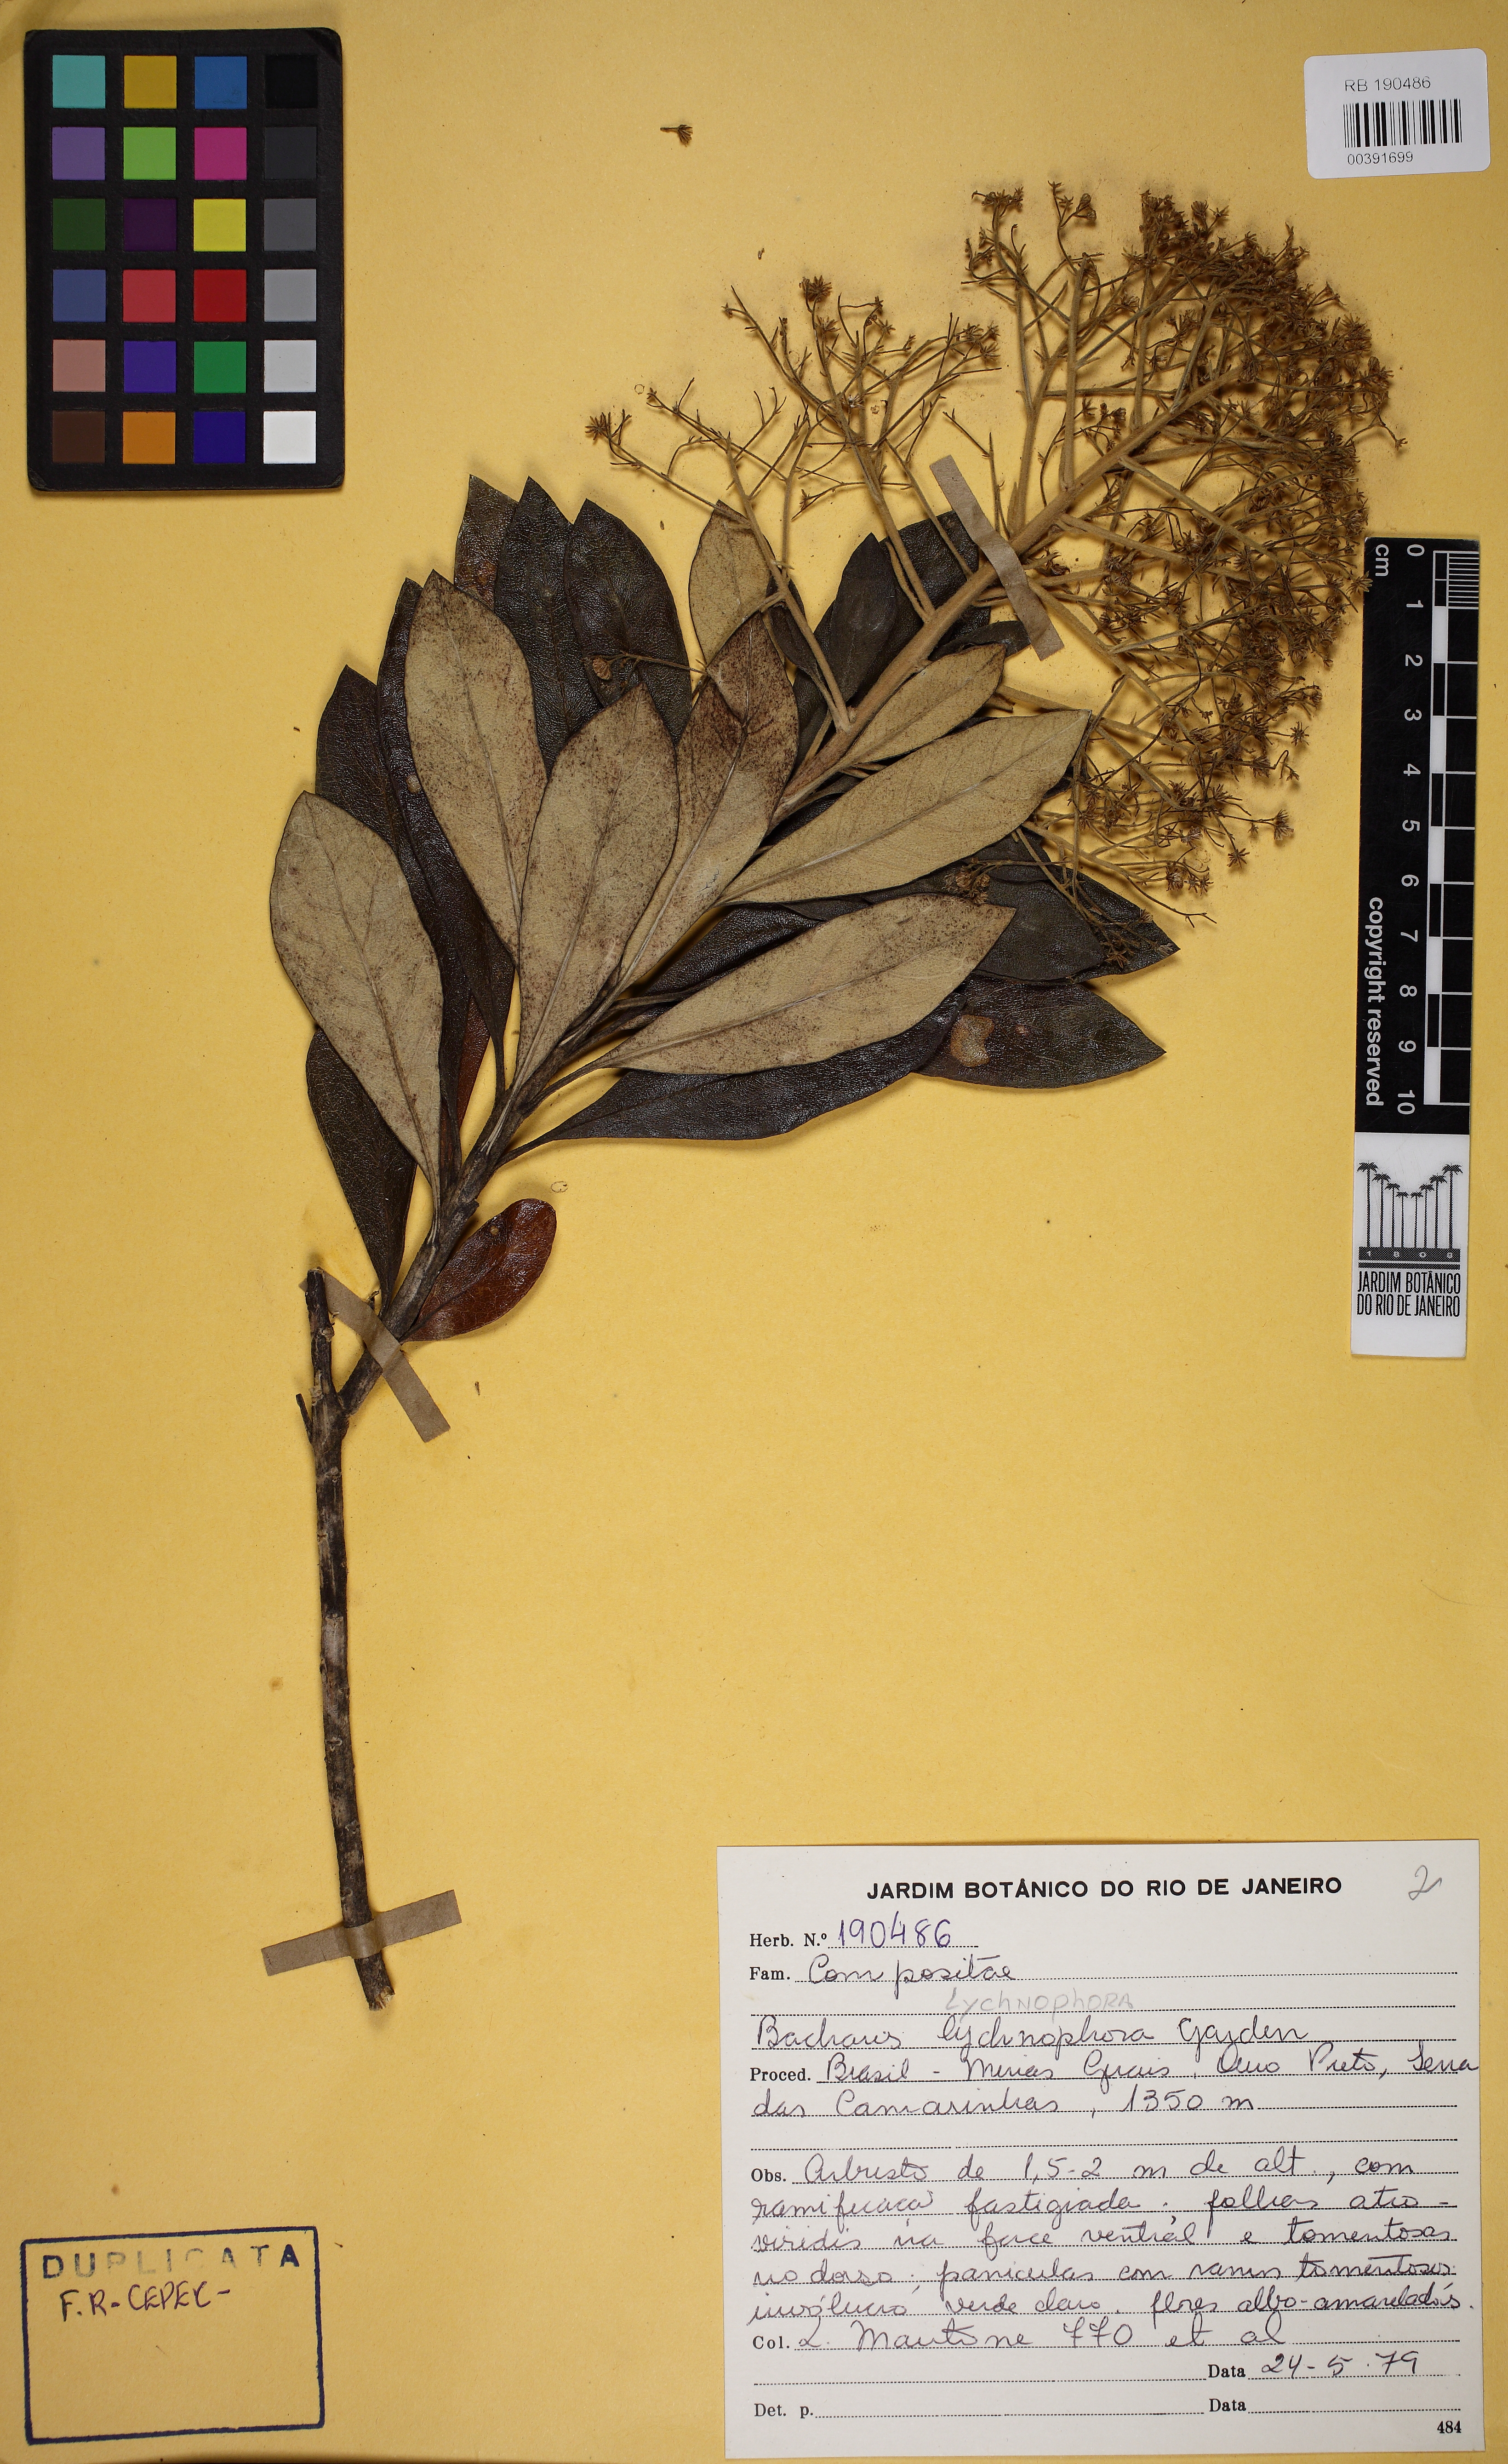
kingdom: Plantae
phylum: Tracheophyta
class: Magnoliopsida
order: Asterales
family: Asteraceae
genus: Baccharis
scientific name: Baccharis lychnophora
